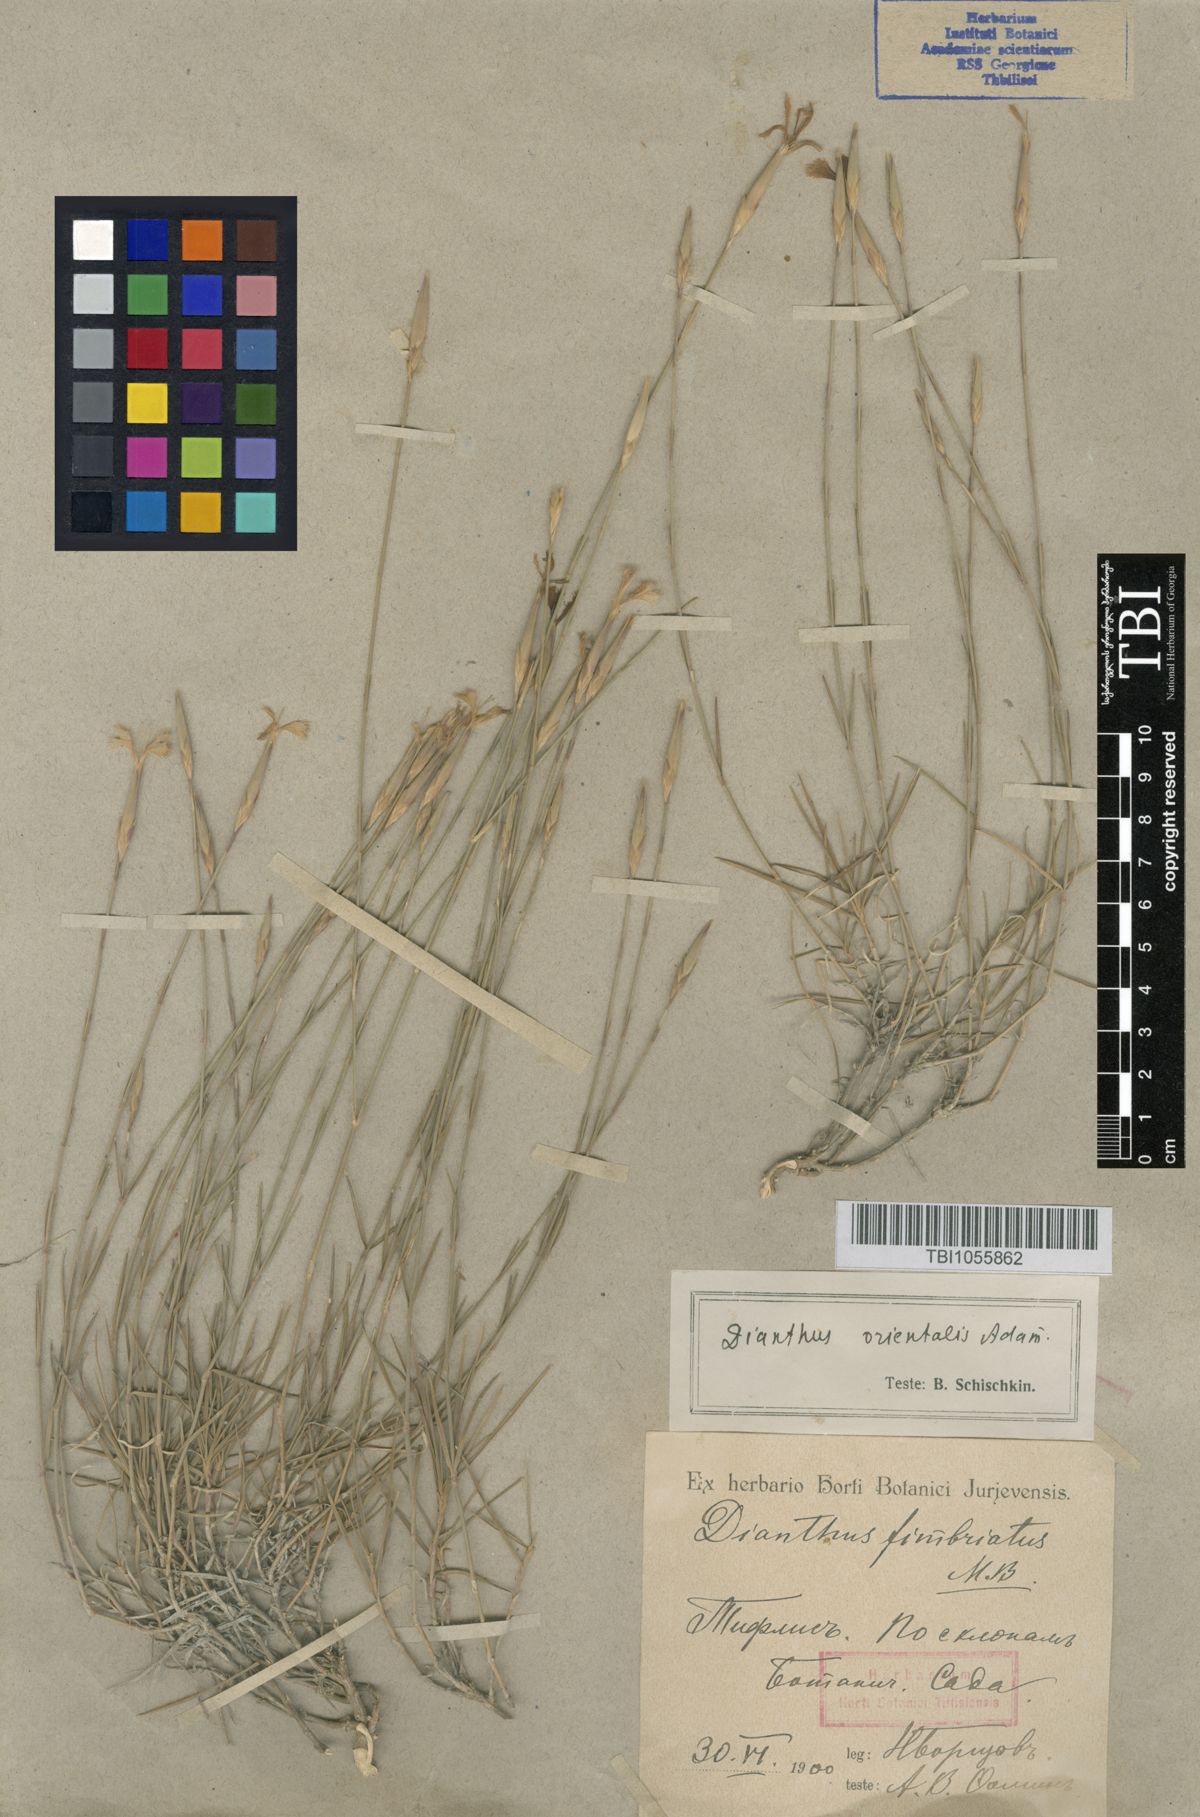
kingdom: Plantae
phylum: Tracheophyta
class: Magnoliopsida
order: Caryophyllales
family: Caryophyllaceae
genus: Dianthus
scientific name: Dianthus orientalis
